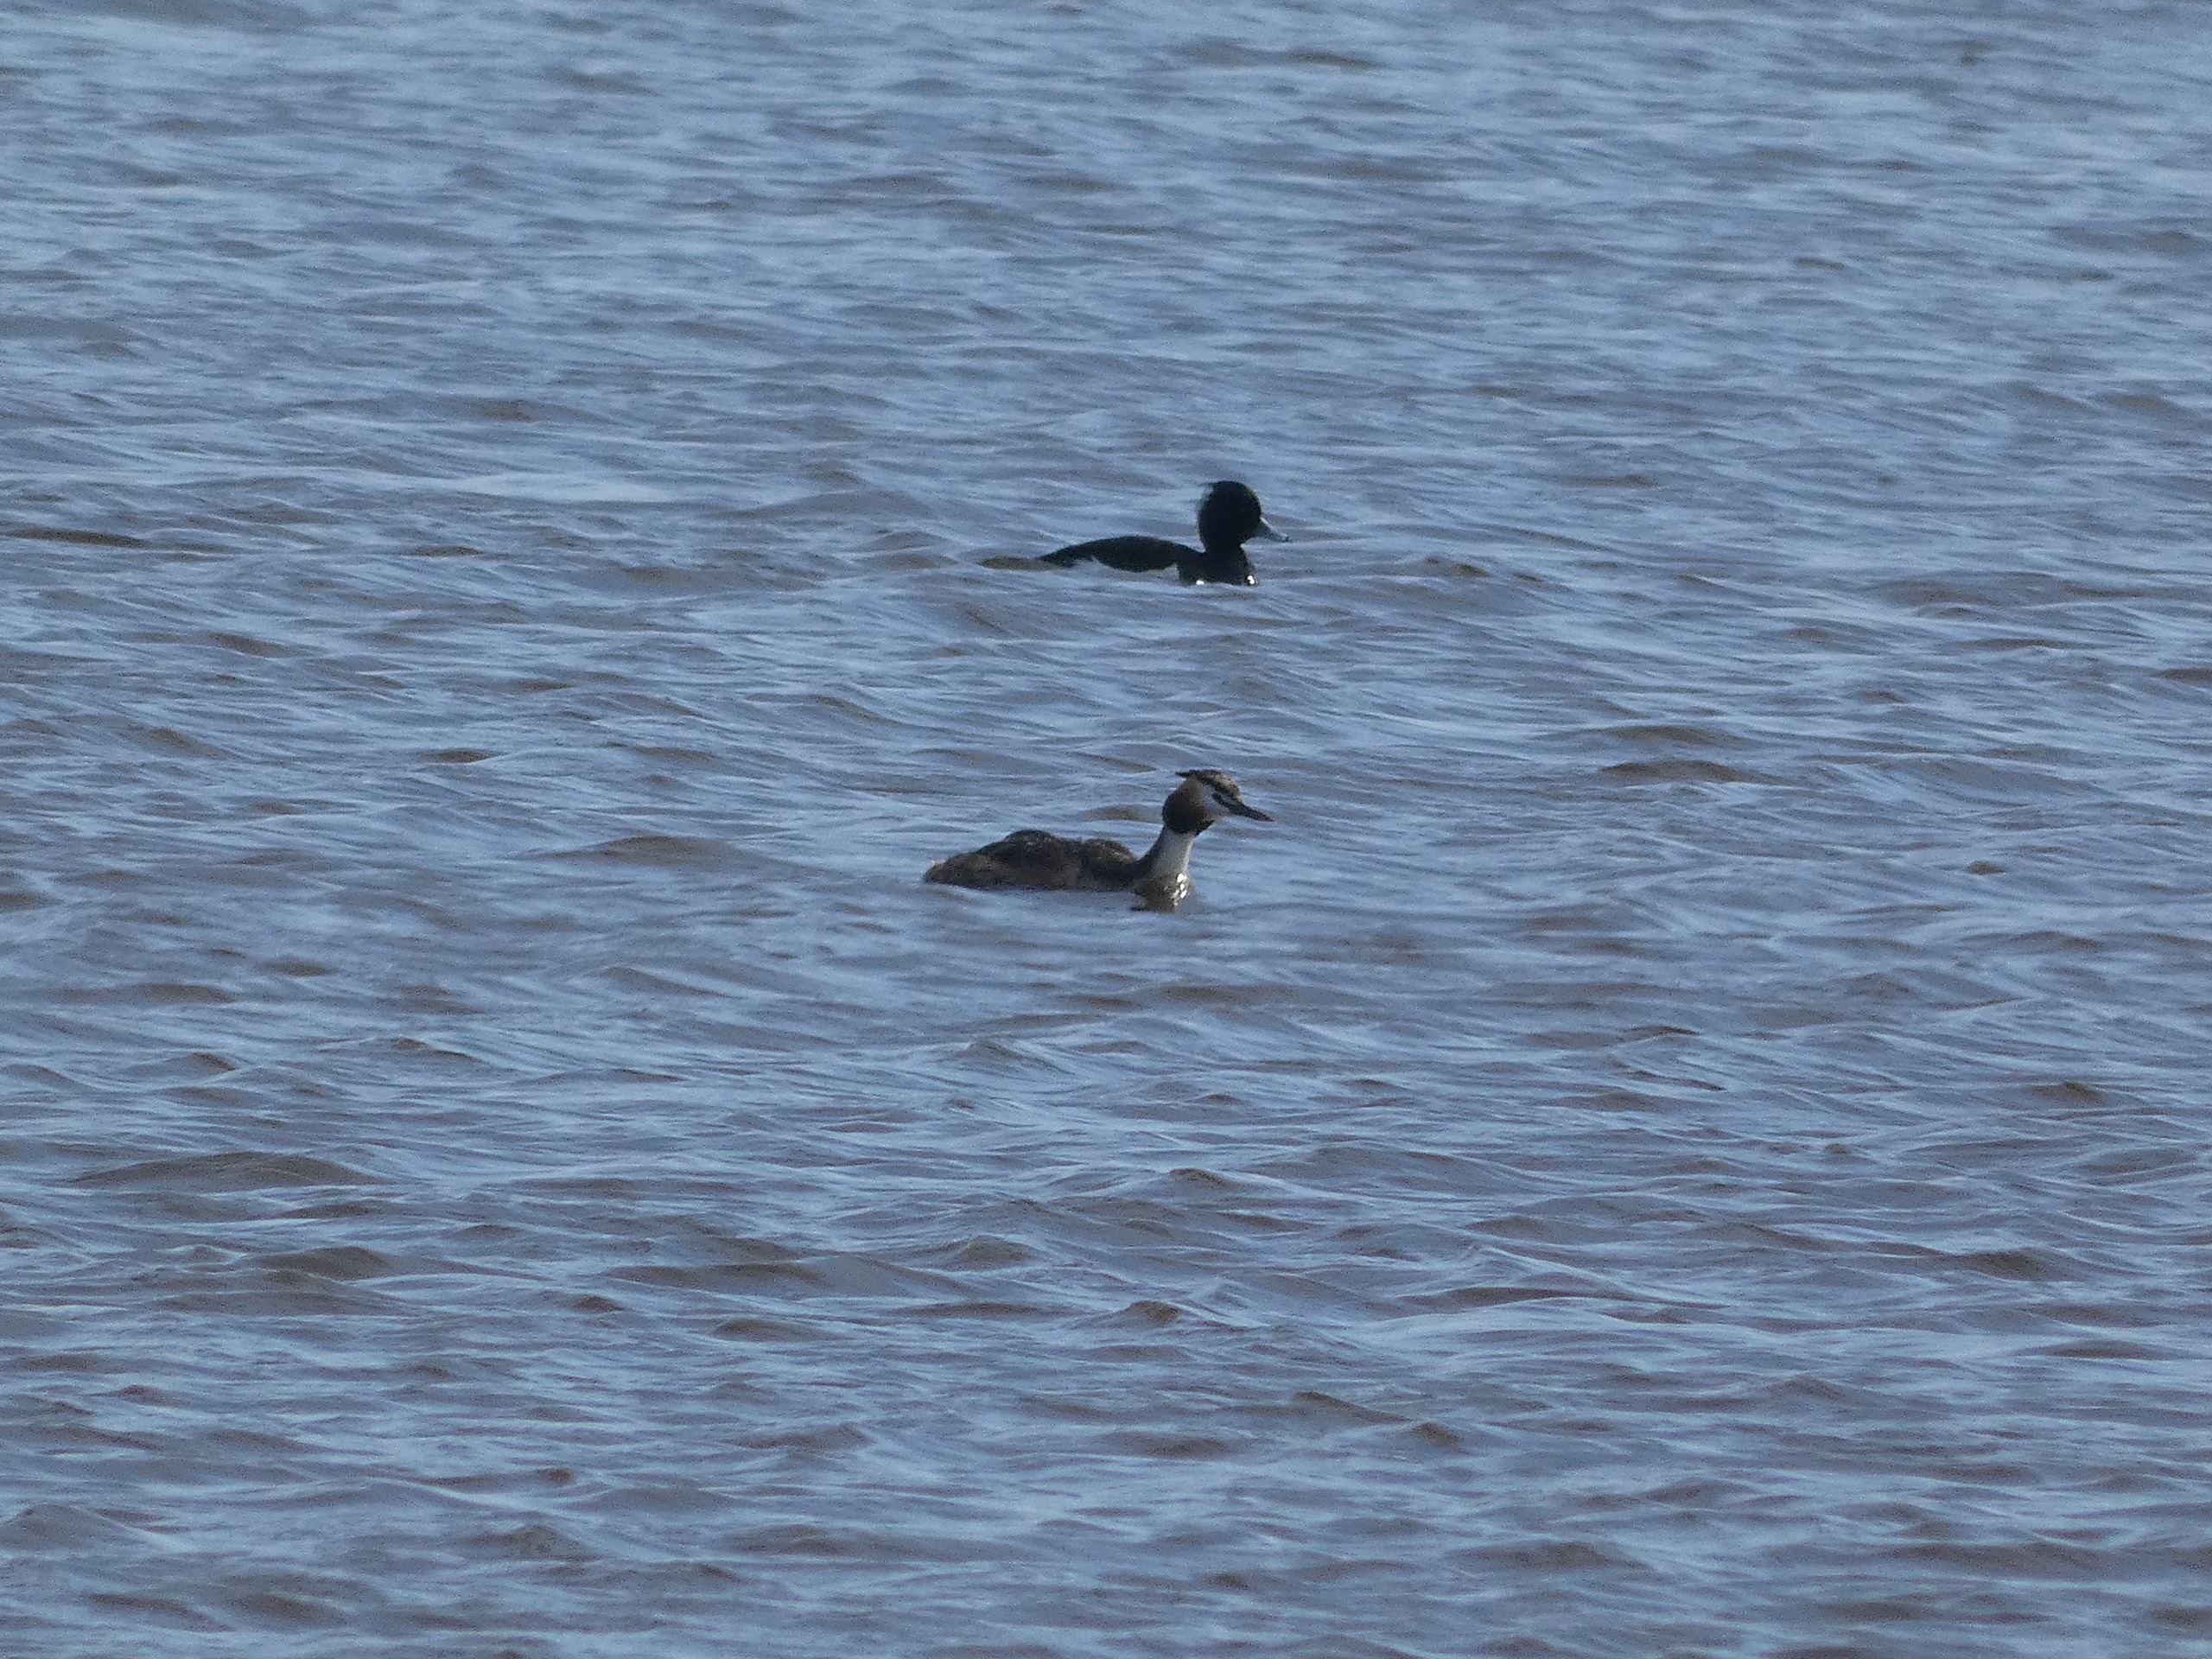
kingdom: Animalia
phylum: Chordata
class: Aves
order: Podicipediformes
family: Podicipedidae
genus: Podiceps
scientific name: Podiceps cristatus
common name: Toppet lappedykker
